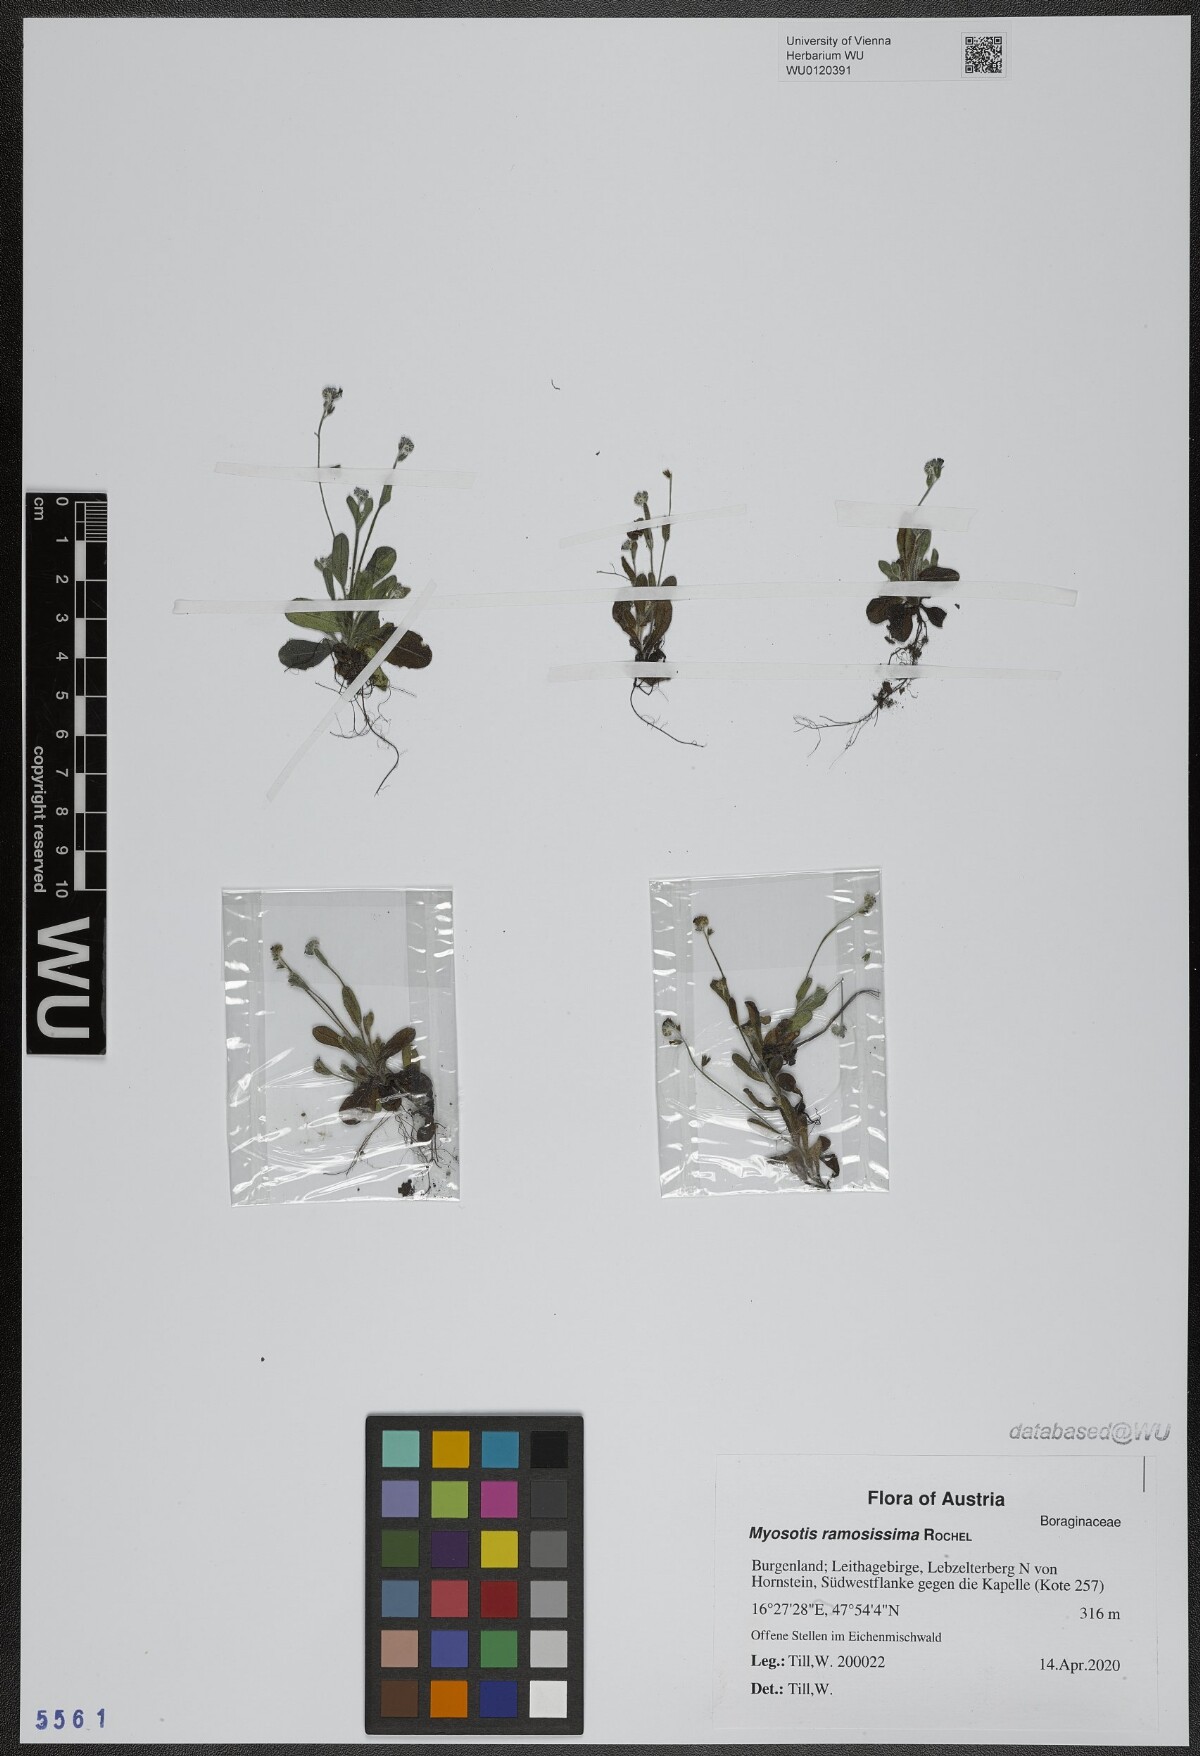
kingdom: Plantae
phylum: Tracheophyta
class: Magnoliopsida
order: Boraginales
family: Boraginaceae
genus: Myosotis
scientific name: Myosotis ramosissima
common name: Early forget-me-not
